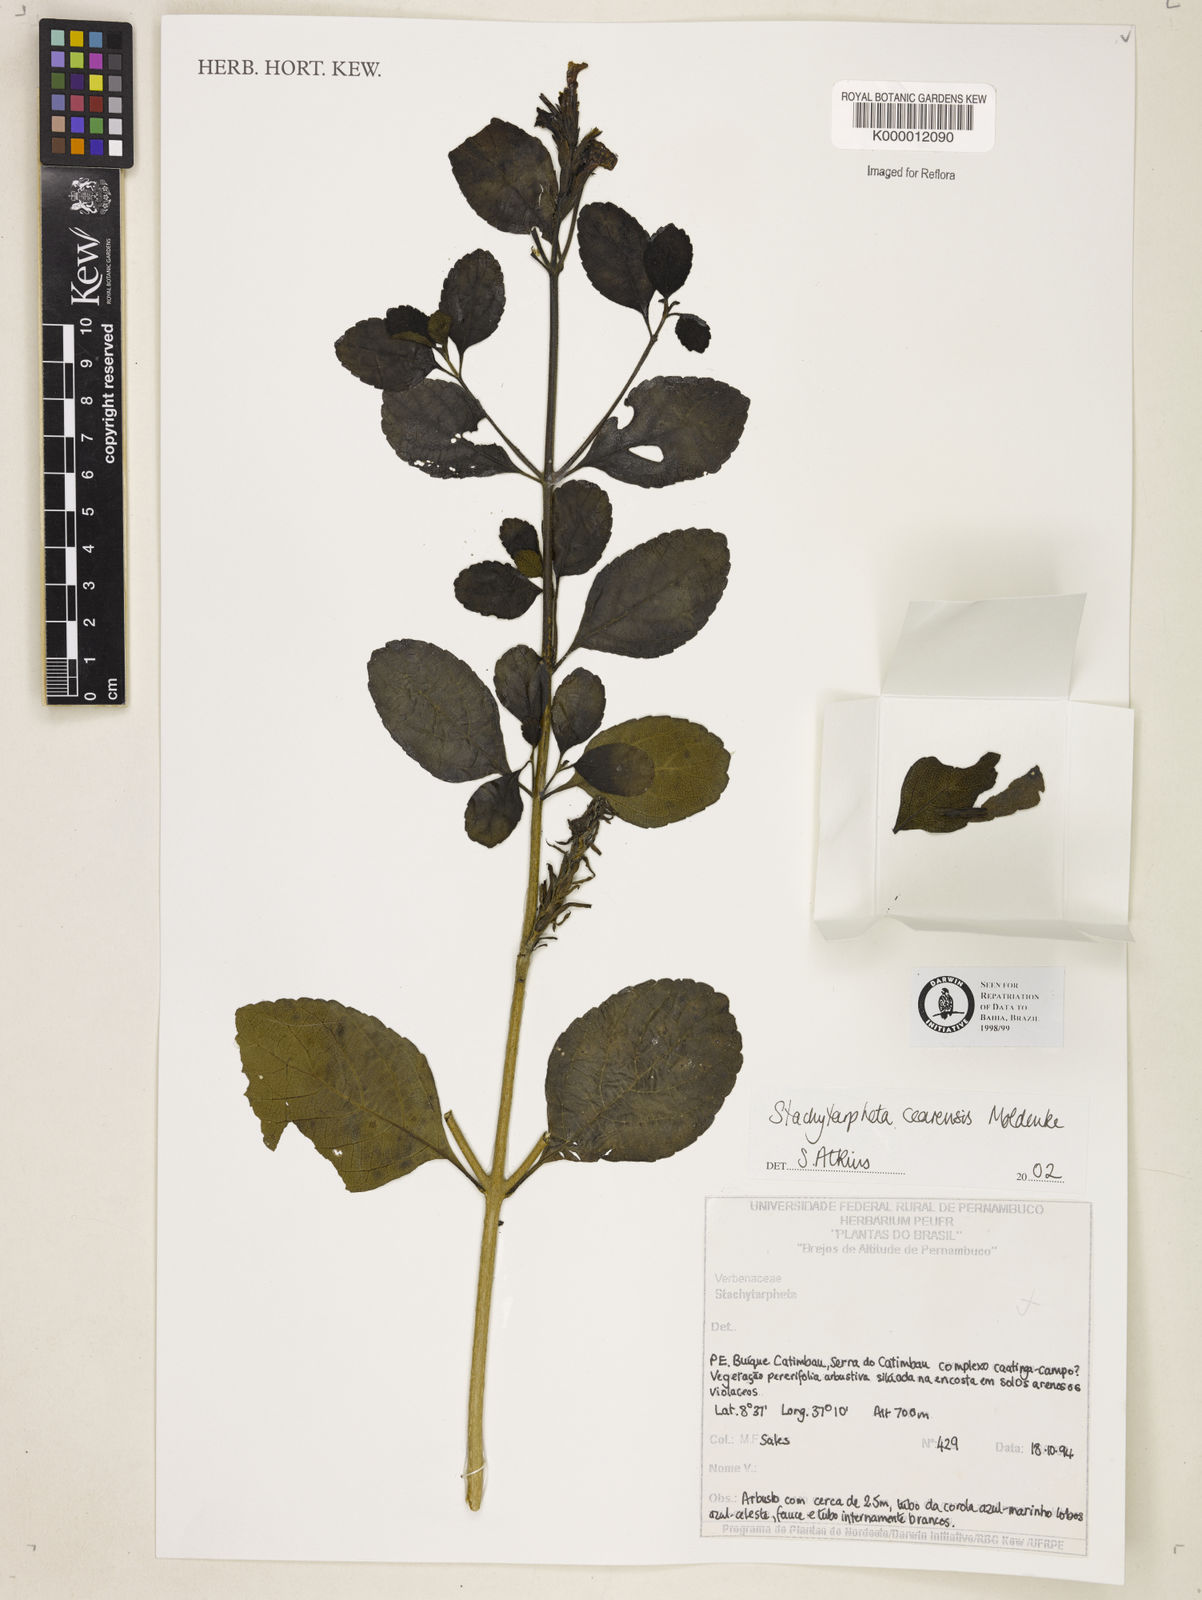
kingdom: Plantae
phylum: Tracheophyta
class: Magnoliopsida
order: Lamiales
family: Verbenaceae
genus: Stachytarpheta
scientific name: Stachytarpheta
